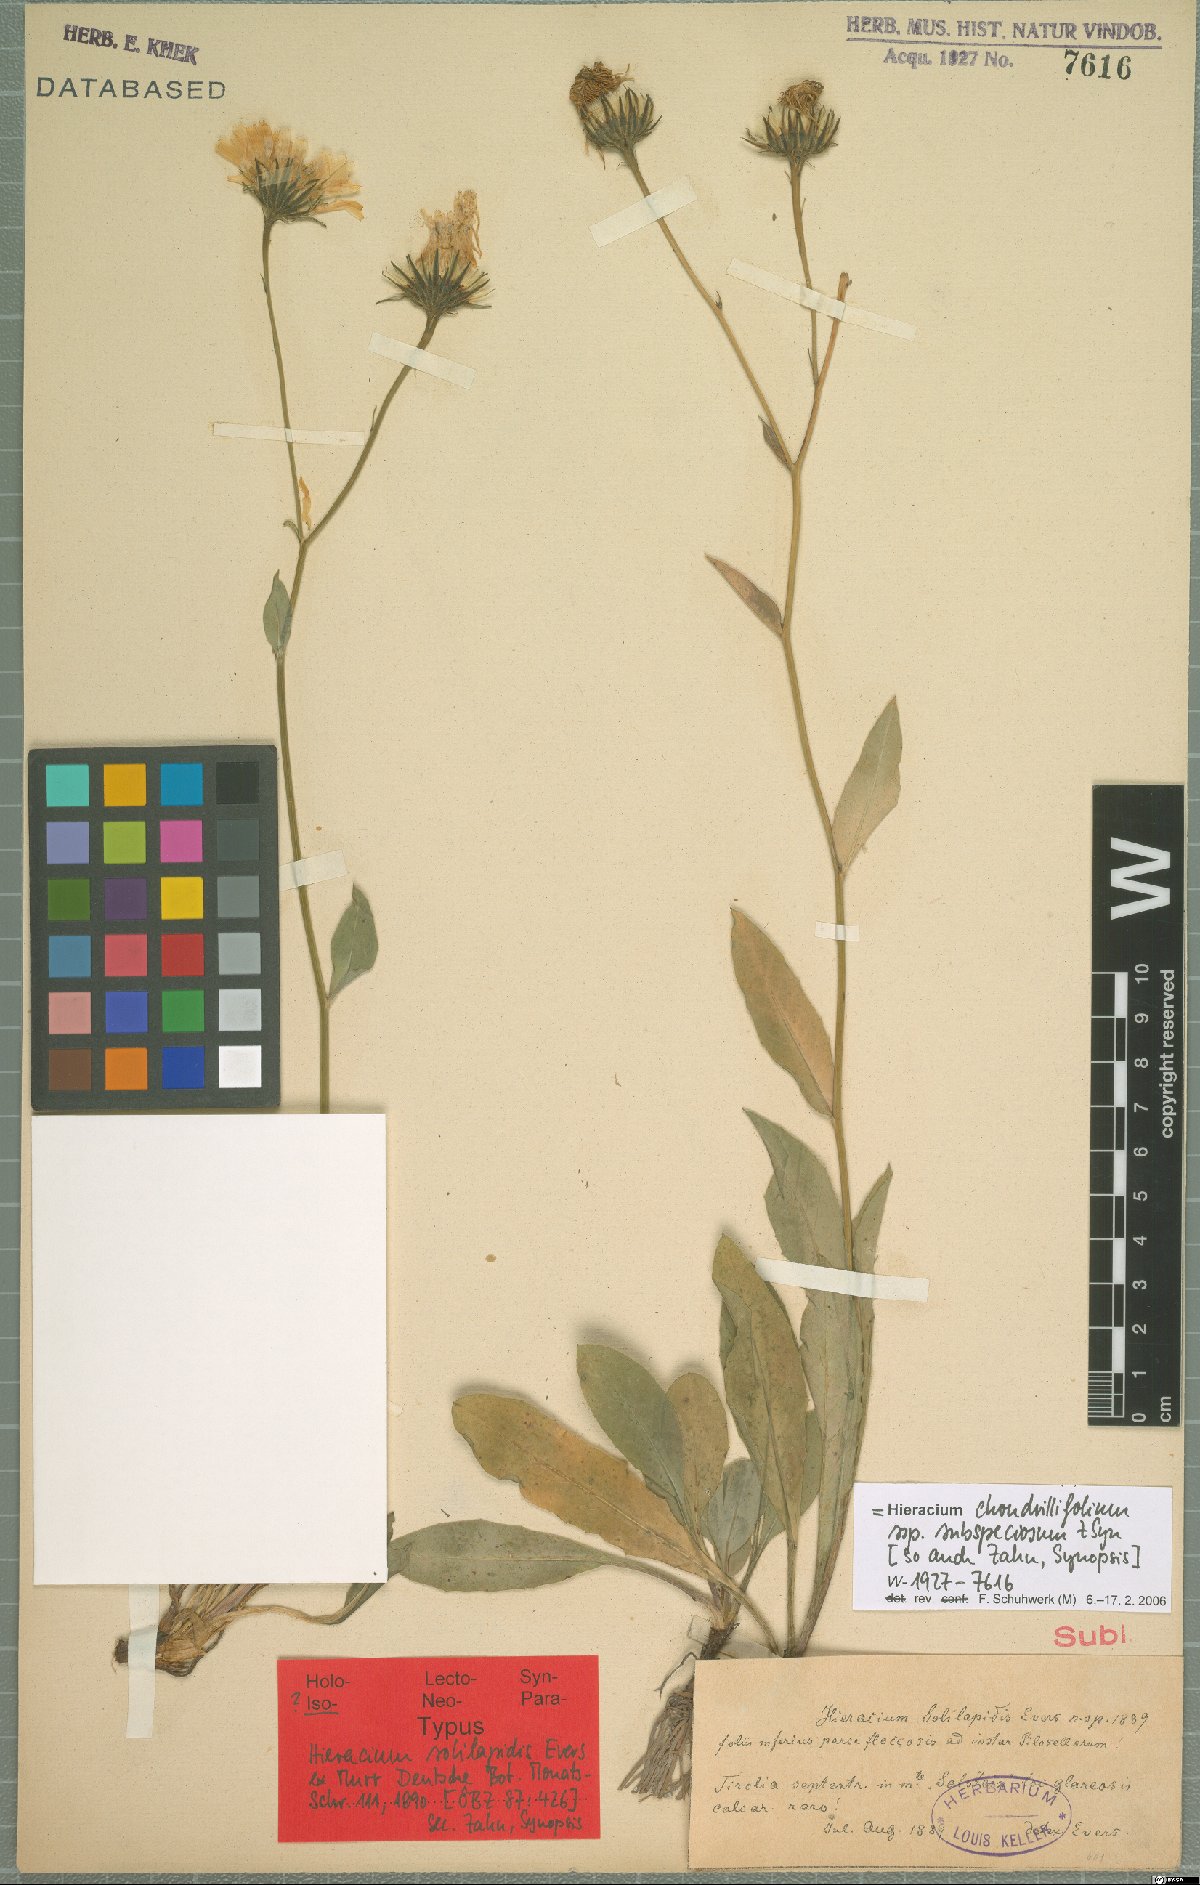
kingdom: Plantae
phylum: Tracheophyta
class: Magnoliopsida
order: Asterales
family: Asteraceae
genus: Hieracium
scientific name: Hieracium subspeciosum
